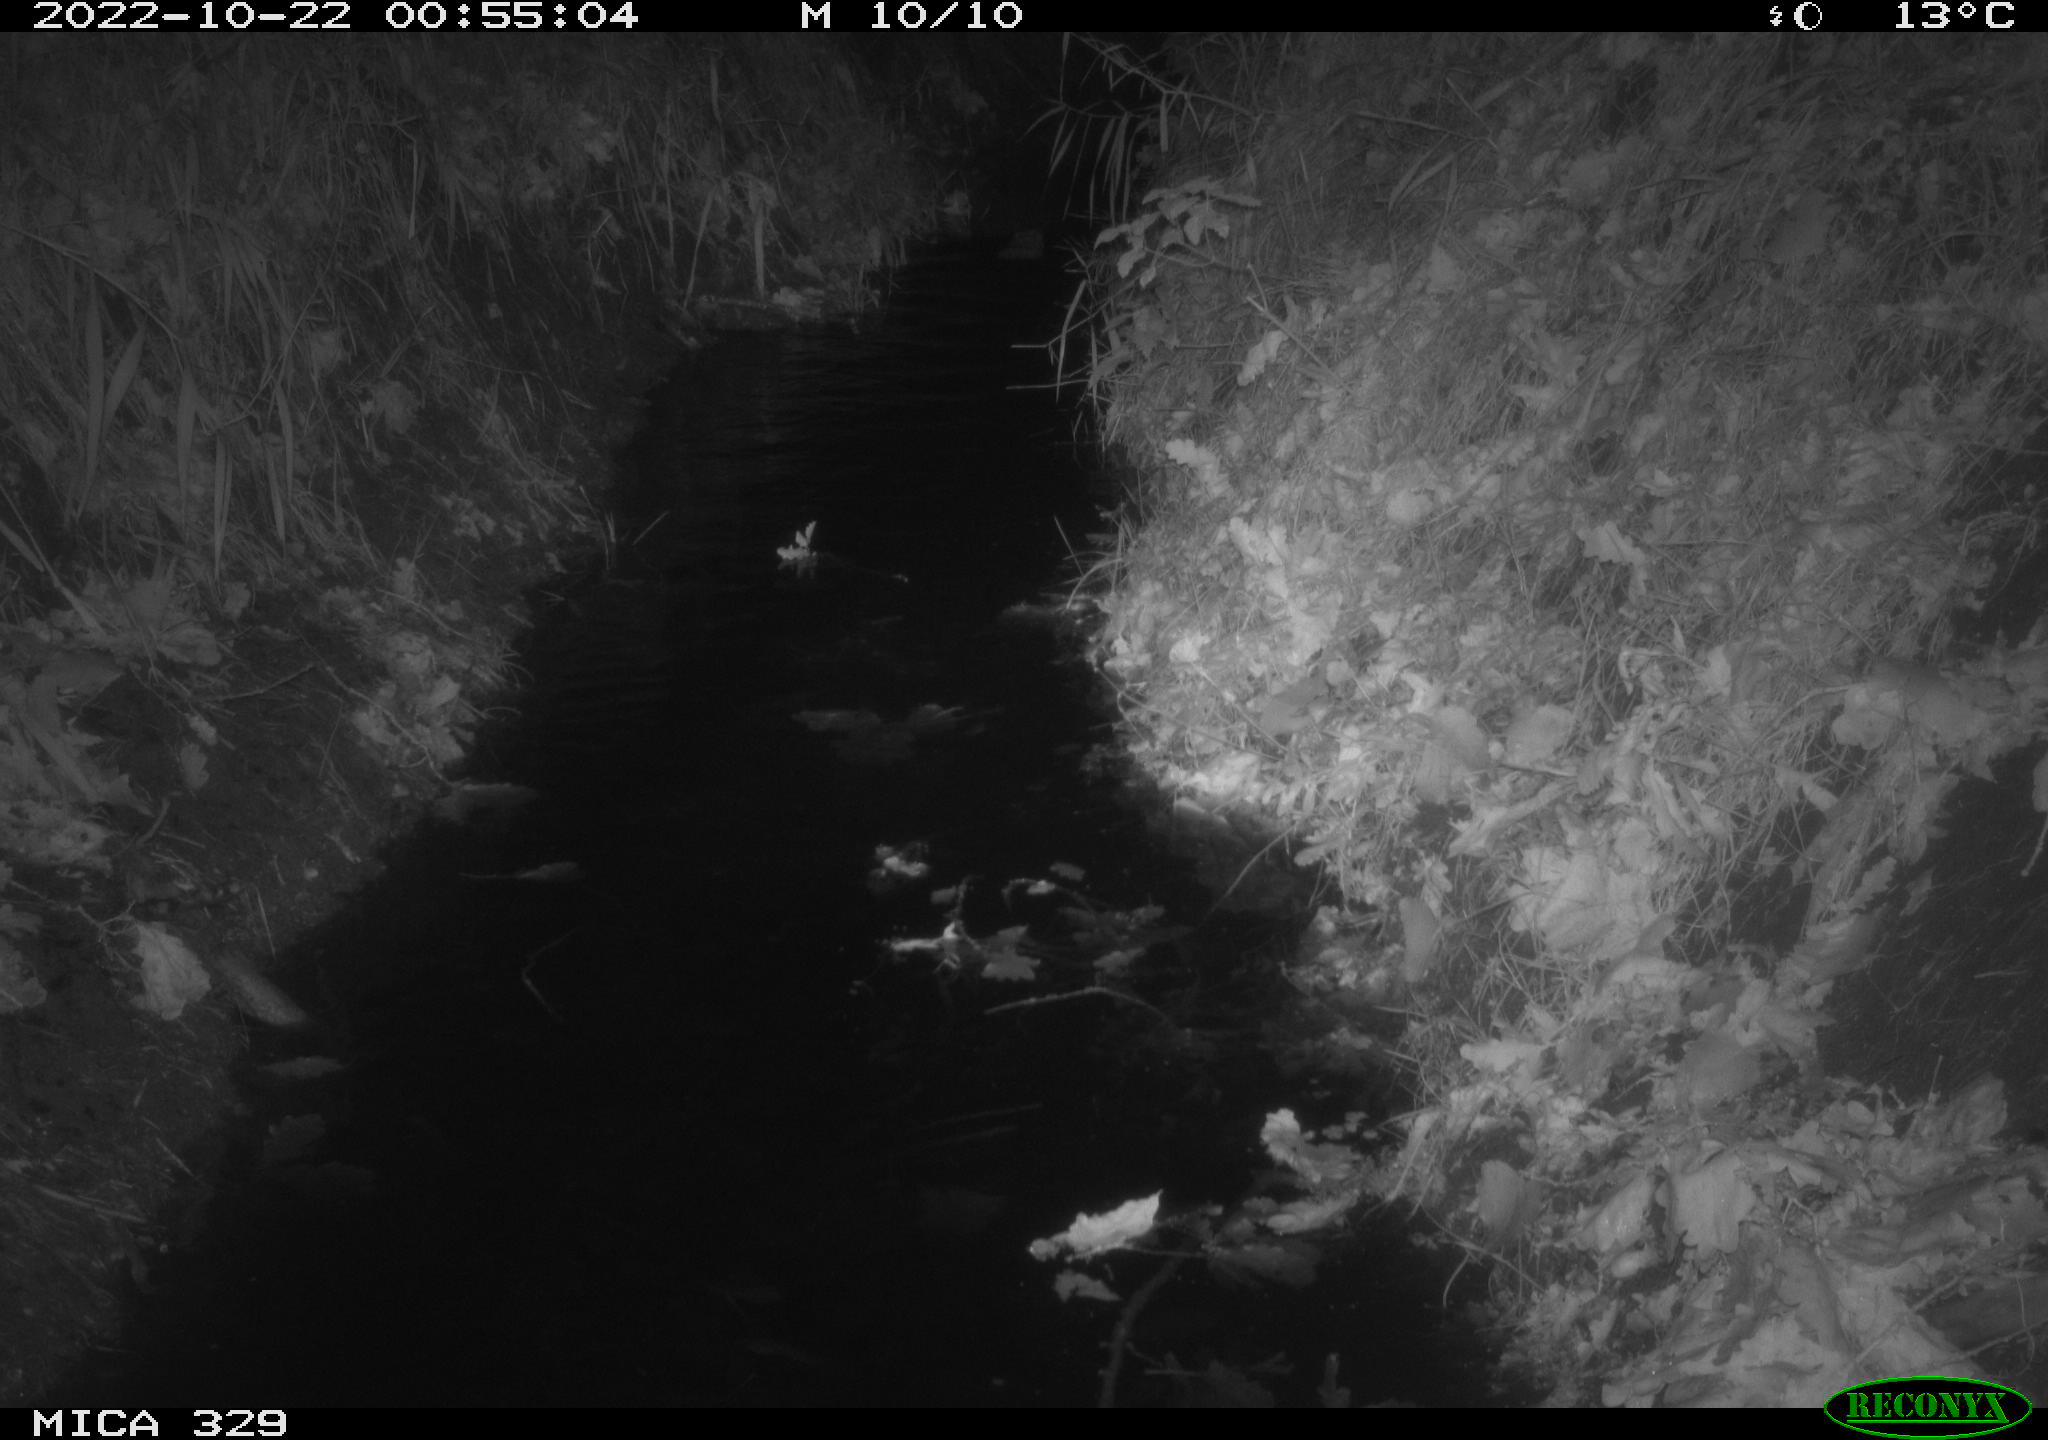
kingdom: Animalia
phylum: Chordata
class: Mammalia
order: Rodentia
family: Cricetidae
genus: Ondatra
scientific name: Ondatra zibethicus
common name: Muskrat
